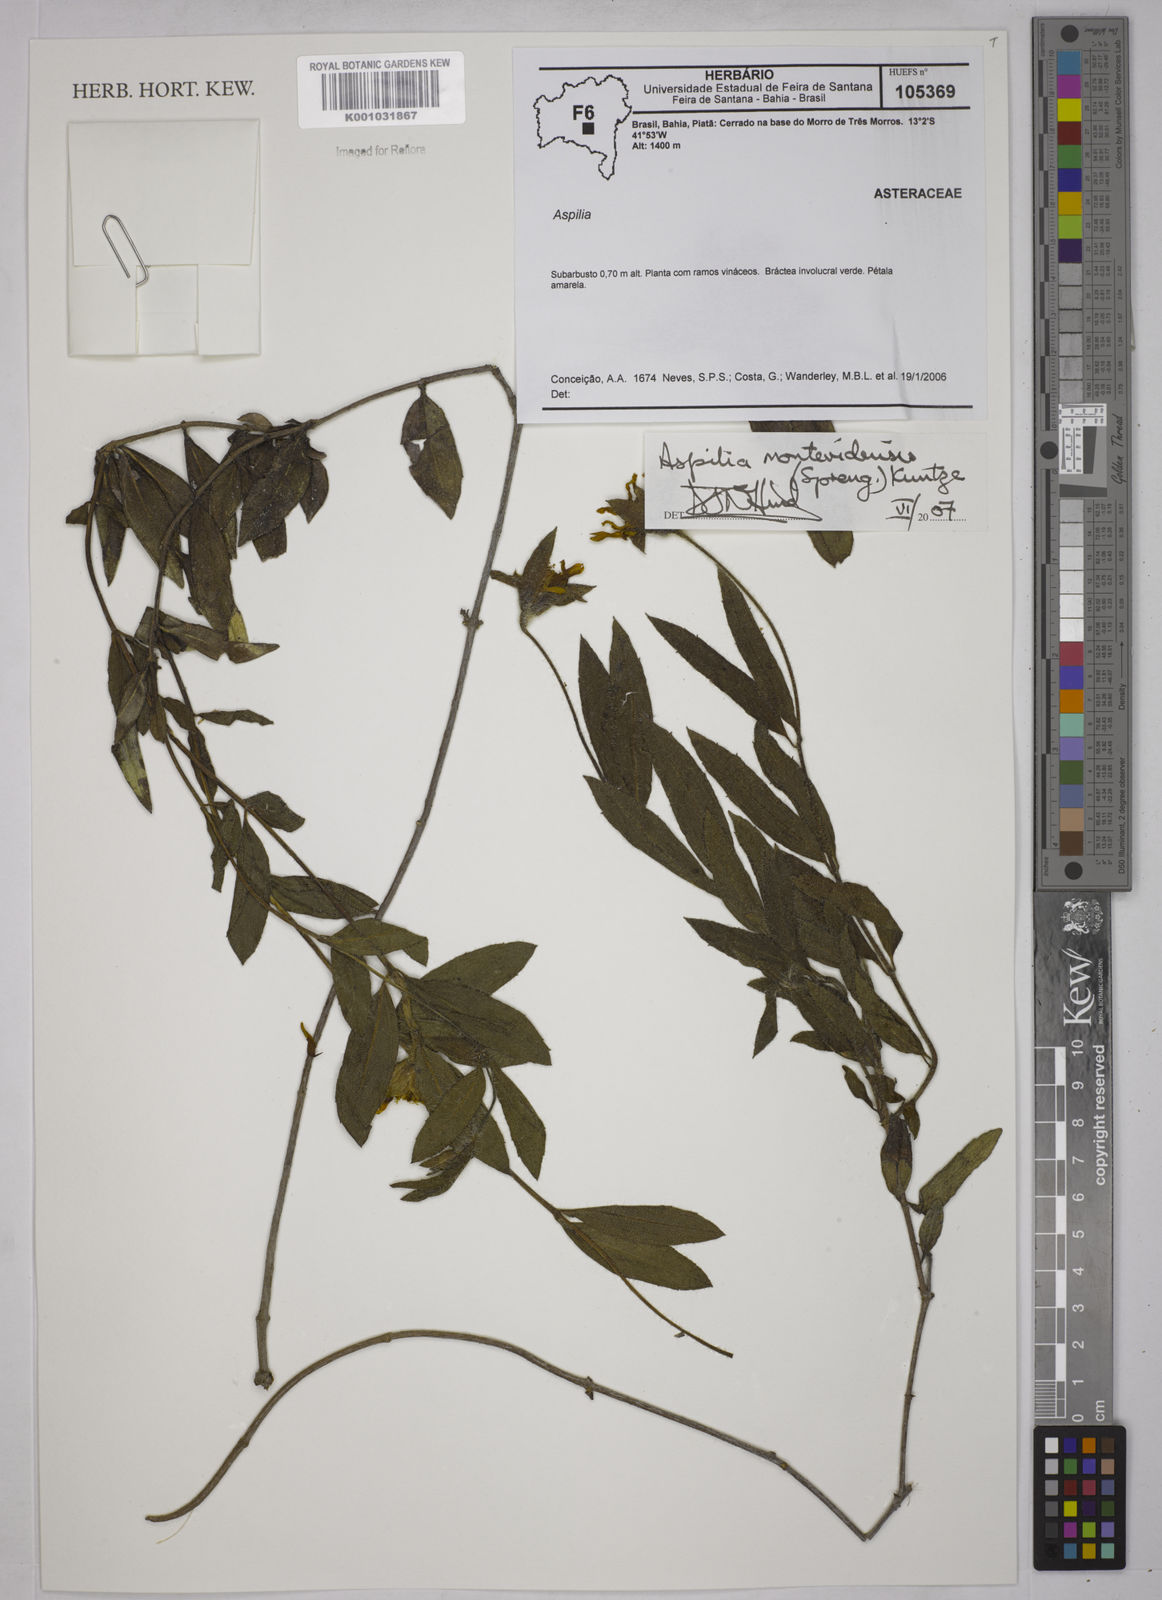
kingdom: Plantae
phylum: Tracheophyta
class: Magnoliopsida
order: Asterales
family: Asteraceae
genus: Wedelia
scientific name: Wedelia montevidensis
